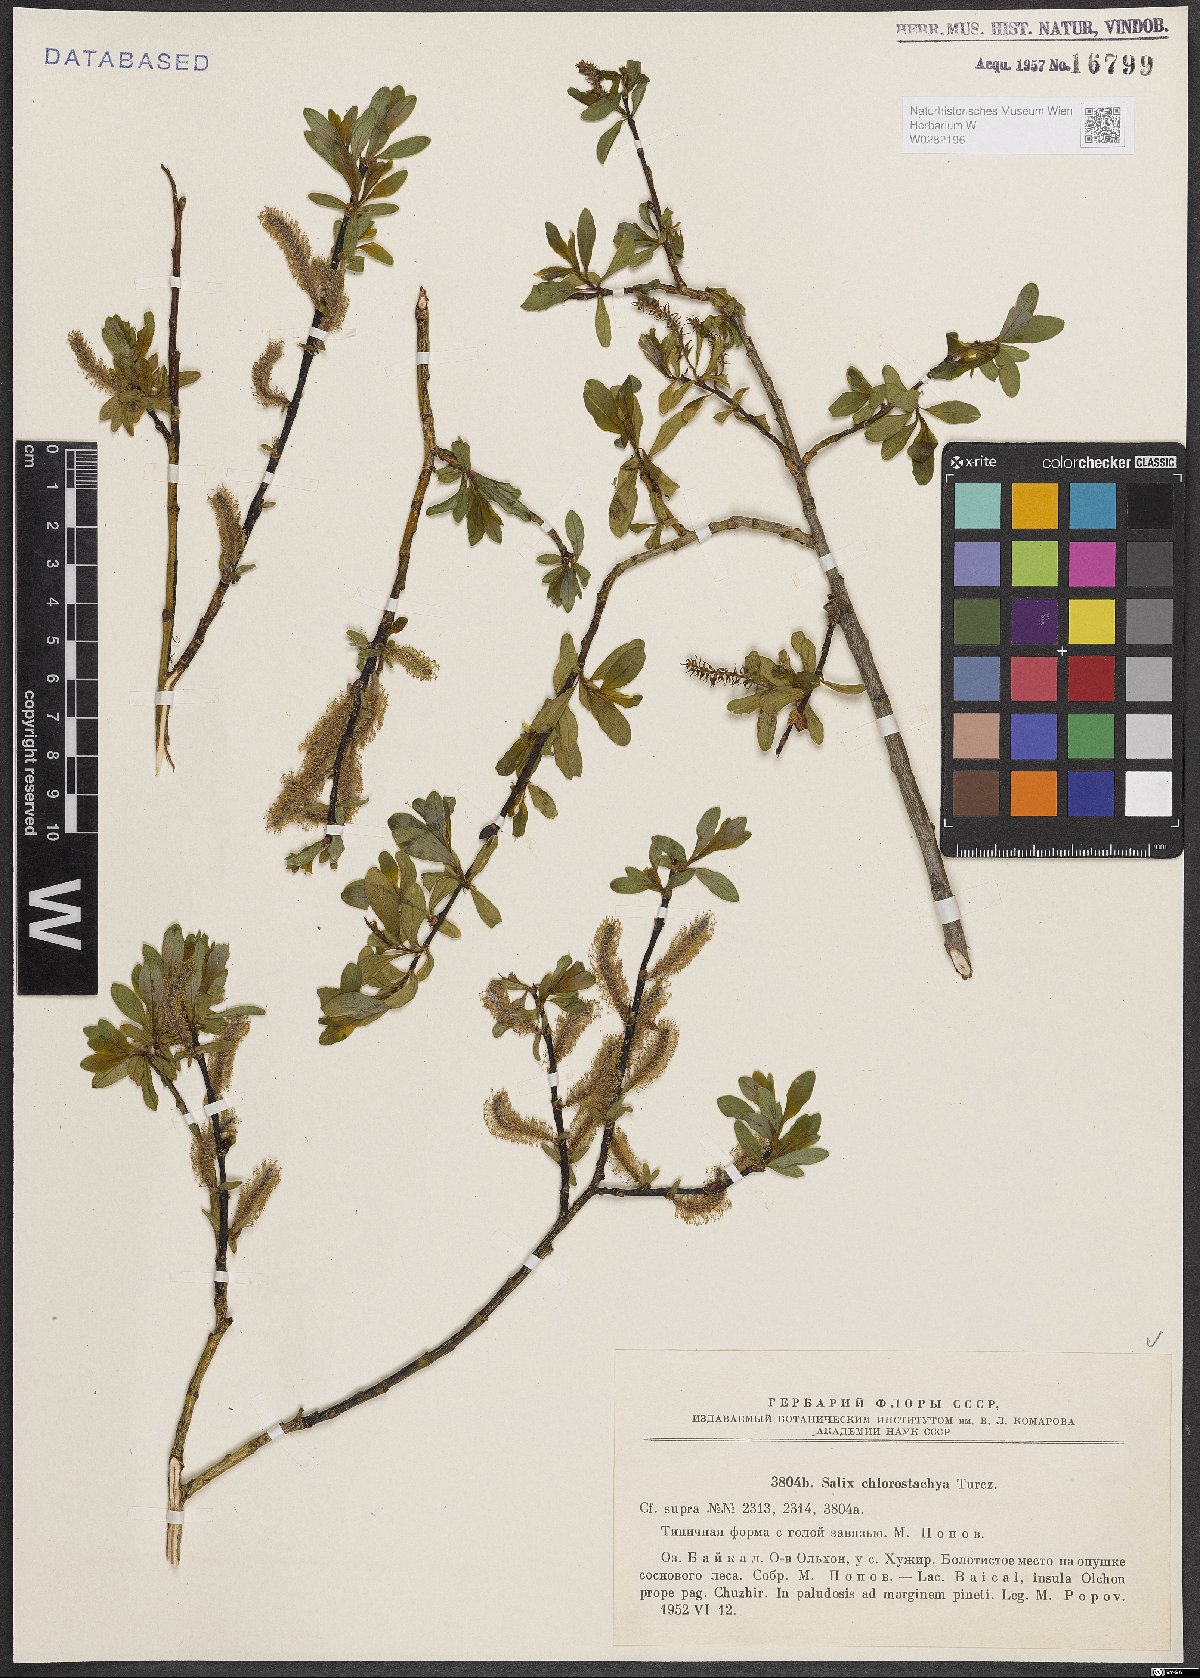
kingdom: Plantae
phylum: Tracheophyta
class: Magnoliopsida
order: Malpighiales
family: Salicaceae
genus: Salix
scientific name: Salix rhamnifolia
